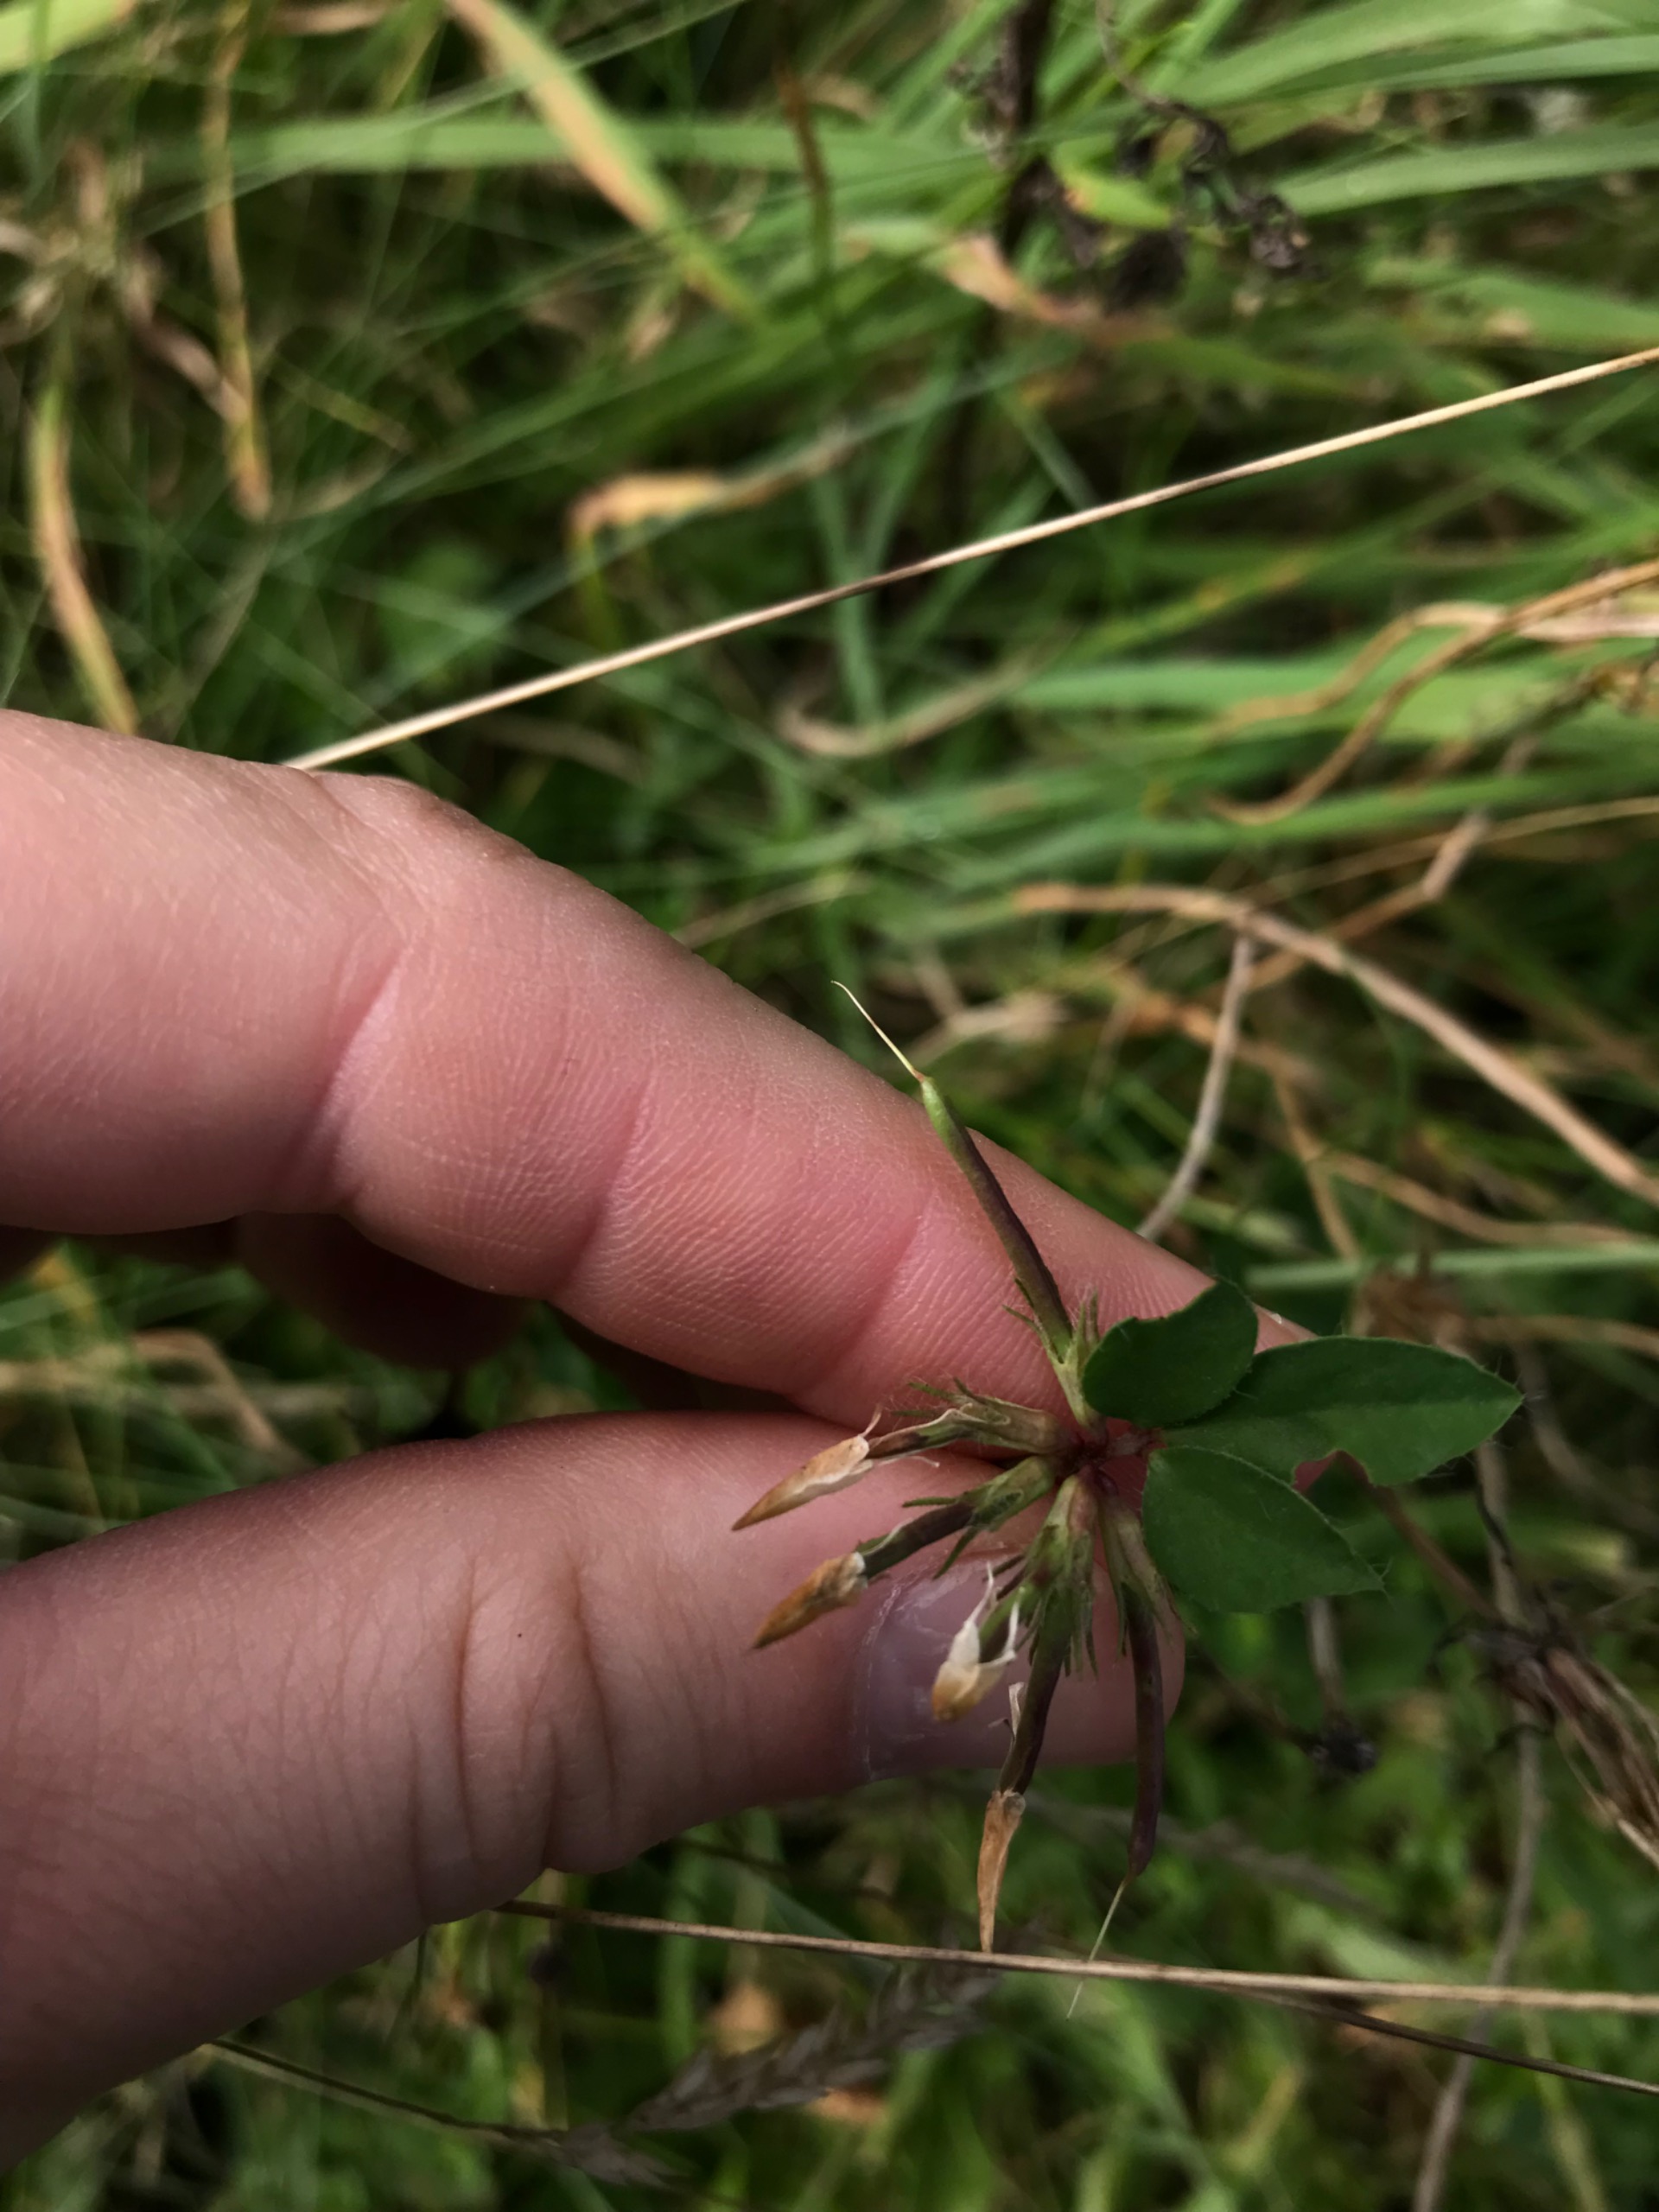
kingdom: Plantae
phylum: Tracheophyta
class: Magnoliopsida
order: Fabales
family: Fabaceae
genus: Lotus
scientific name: Lotus corniculatus
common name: Almindelig kællingetand
